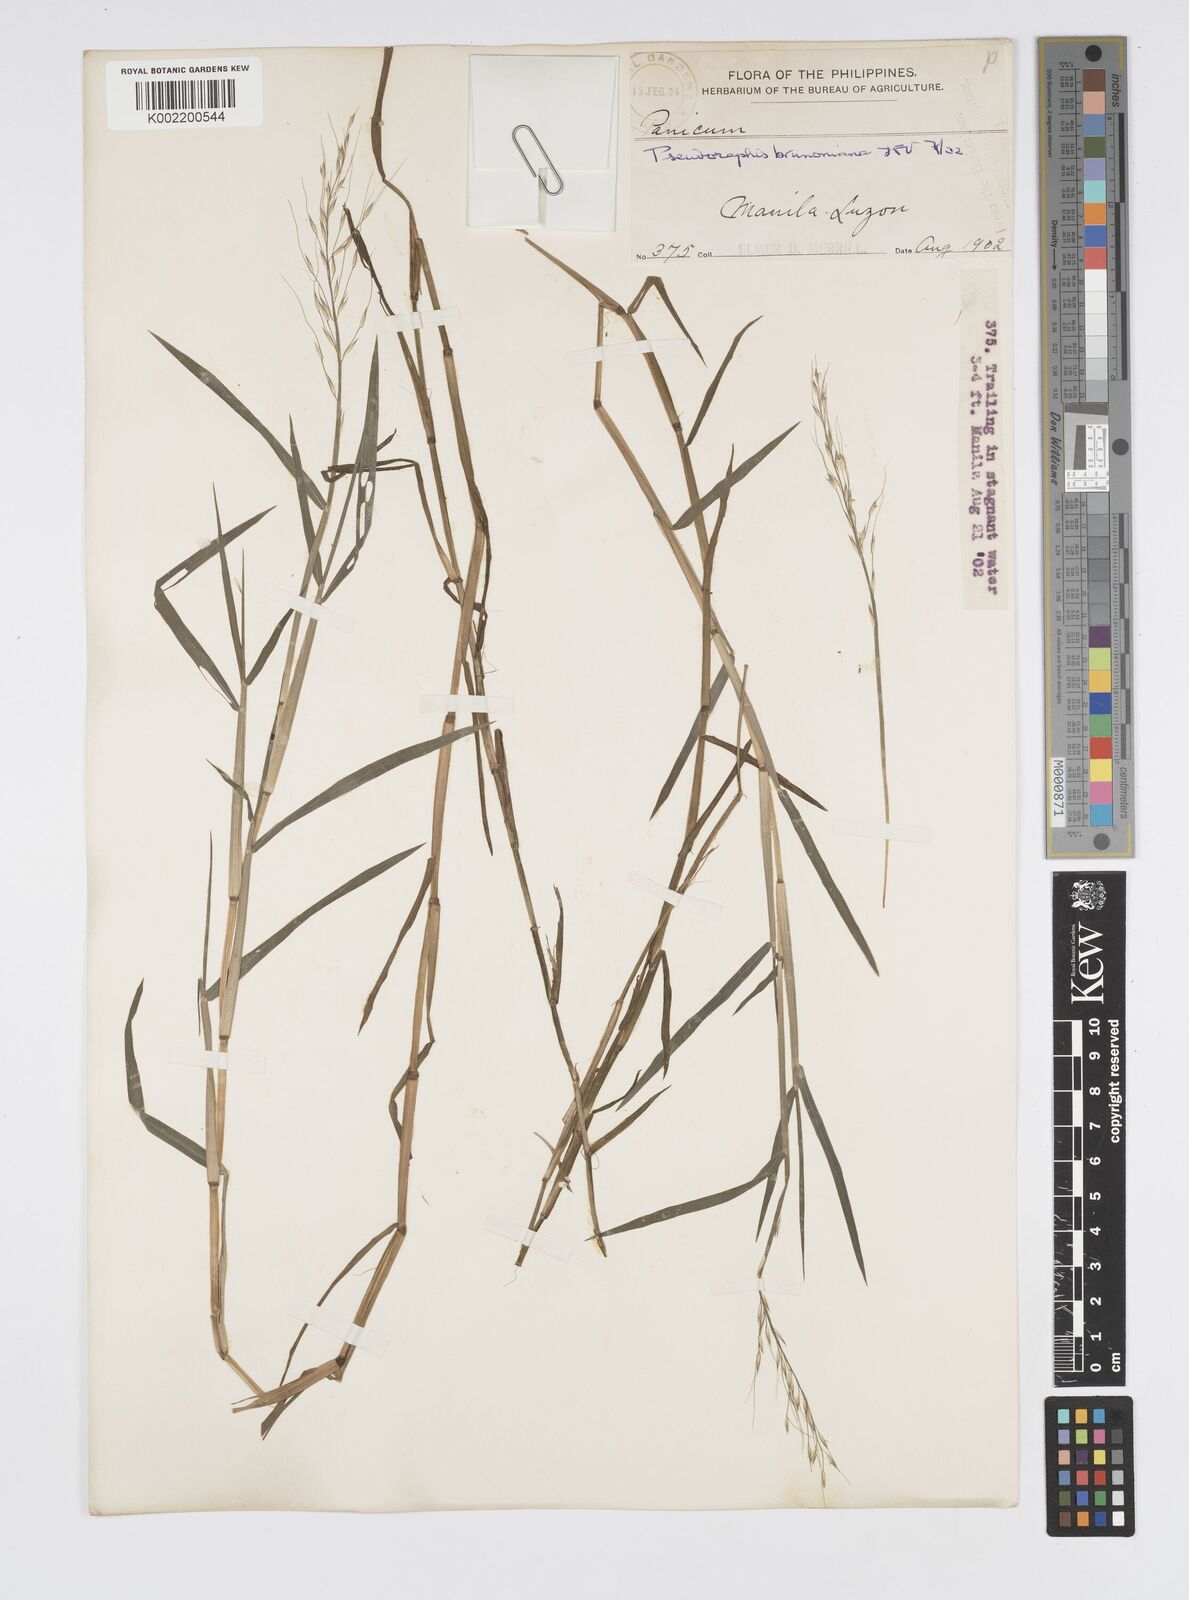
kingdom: Plantae
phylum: Tracheophyta
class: Liliopsida
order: Poales
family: Poaceae
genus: Pseudoraphis
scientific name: Pseudoraphis brunoniana
